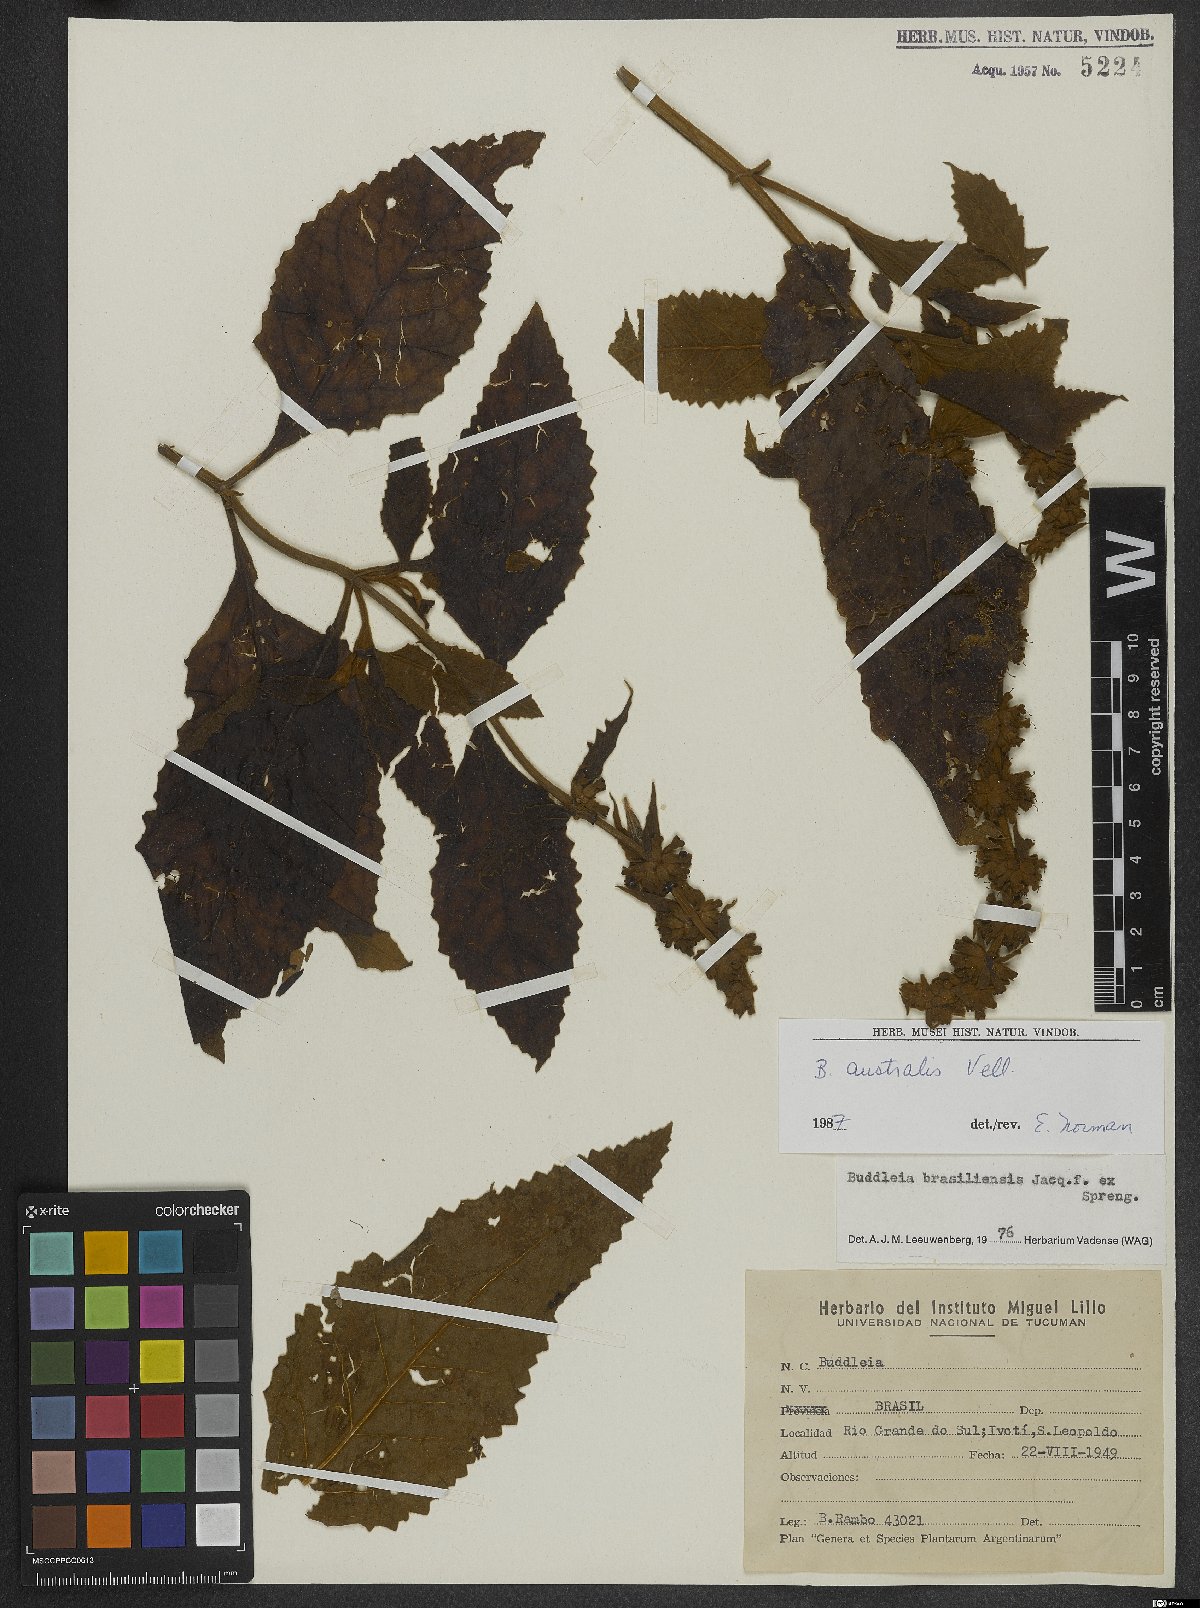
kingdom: Plantae
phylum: Tracheophyta
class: Magnoliopsida
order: Lamiales
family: Scrophulariaceae
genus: Buddleja
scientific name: Buddleja stachyoides
